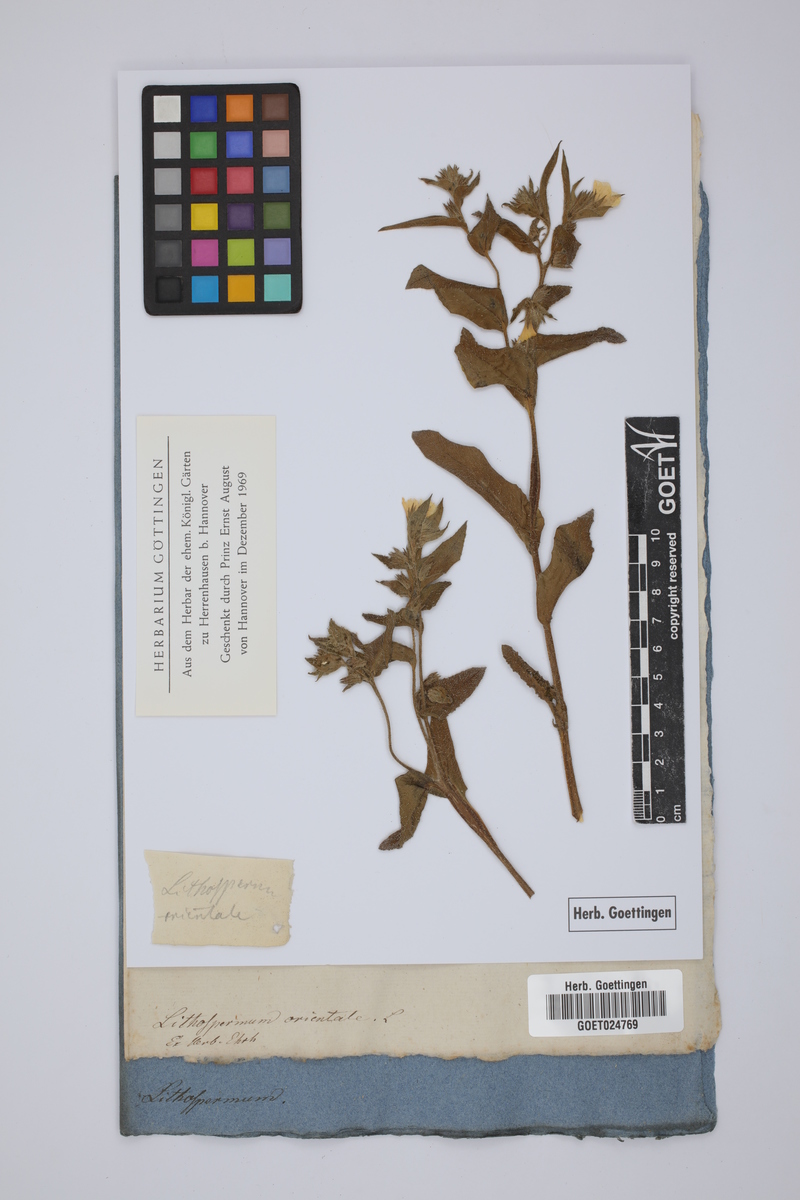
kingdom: Plantae
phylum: Tracheophyta
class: Magnoliopsida
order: Boraginales
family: Boraginaceae
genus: Alkanna
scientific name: Alkanna orientalis
